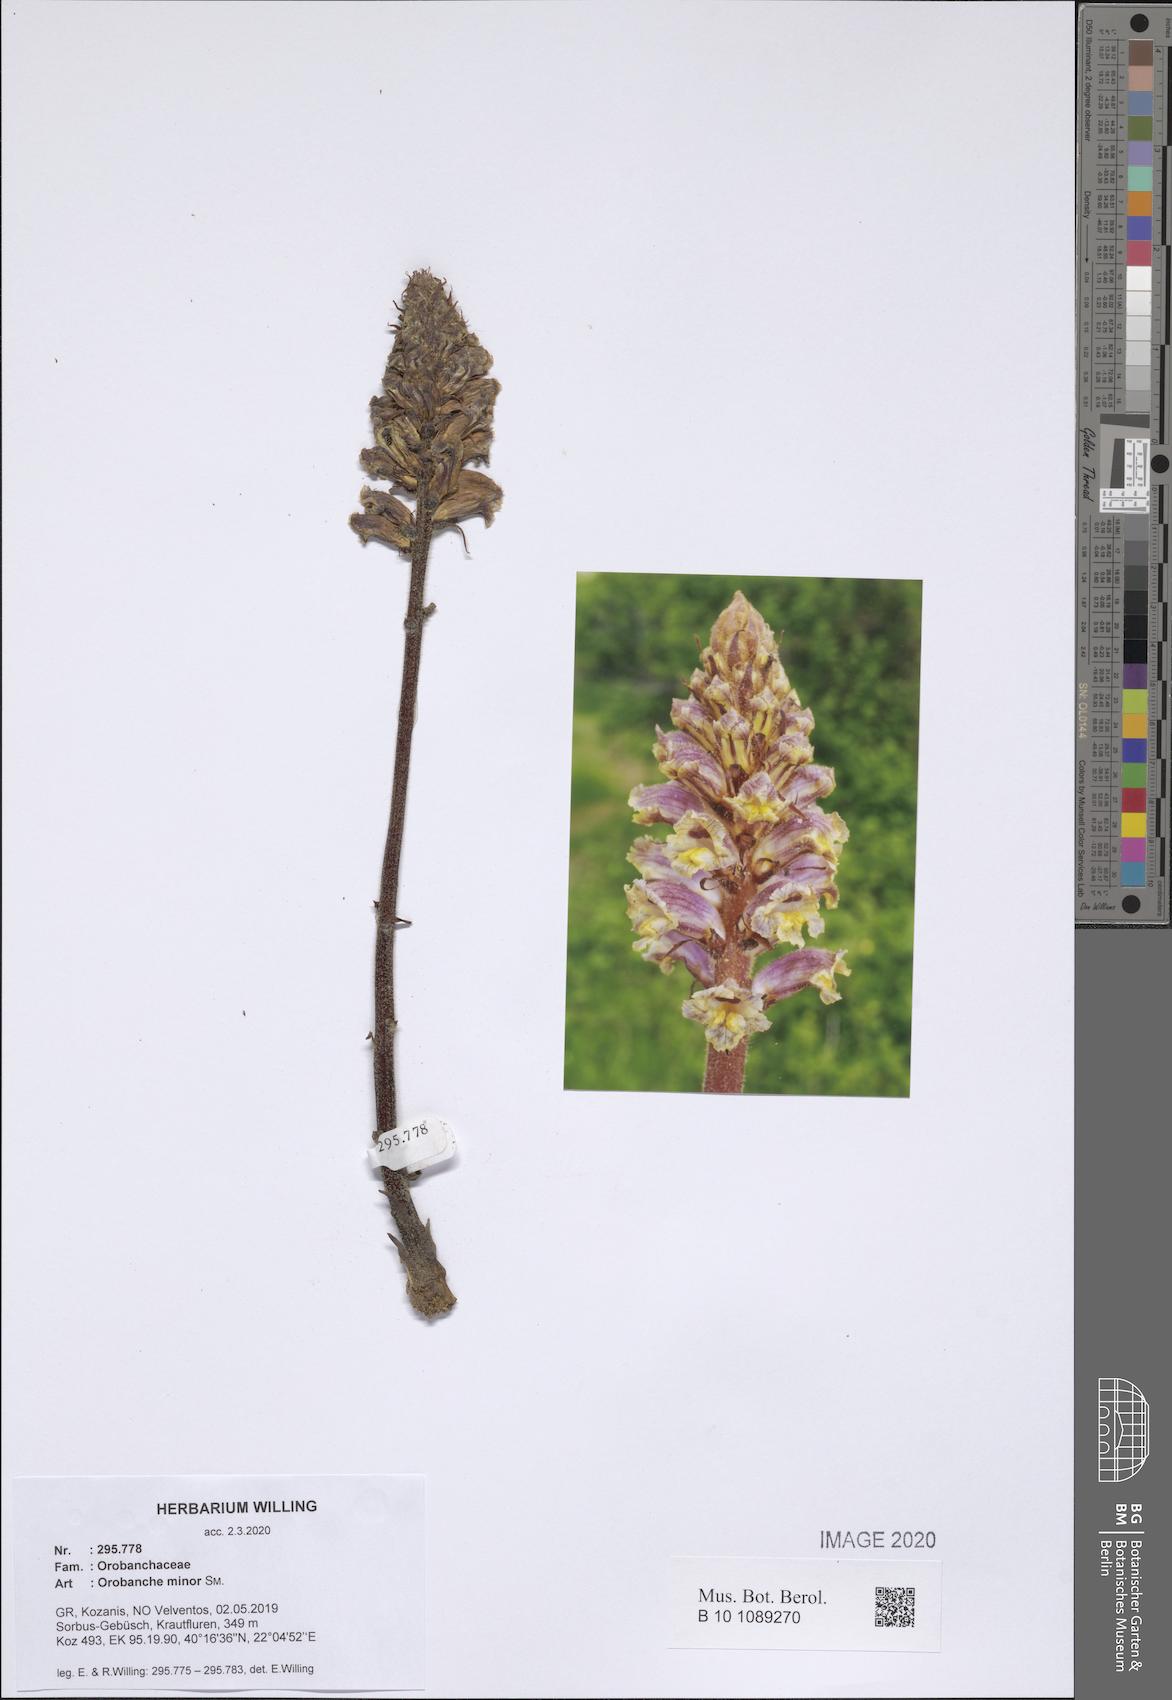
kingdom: Plantae
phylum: Tracheophyta
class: Magnoliopsida
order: Lamiales
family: Orobanchaceae
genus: Orobanche
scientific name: Orobanche litorea
